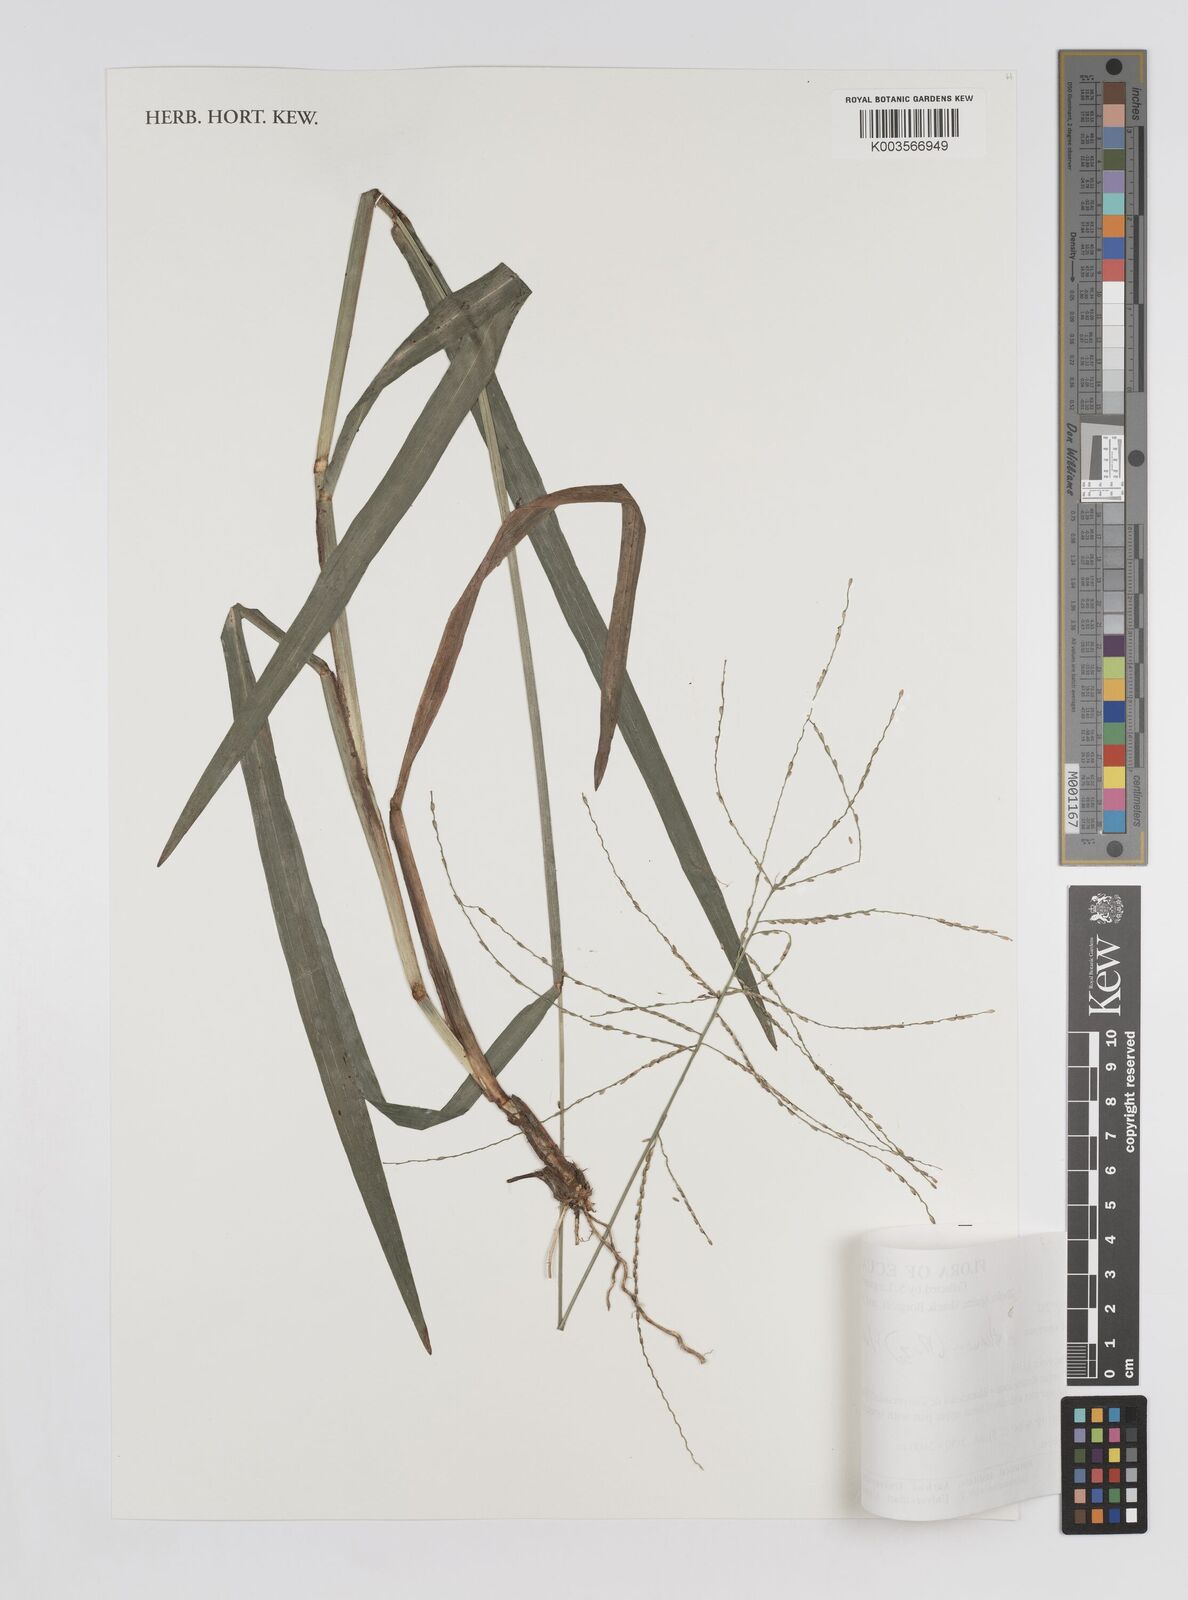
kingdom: Plantae
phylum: Tracheophyta
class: Liliopsida
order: Poales
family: Poaceae
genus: Axonopus
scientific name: Axonopus scoparius
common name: Imperial grass
